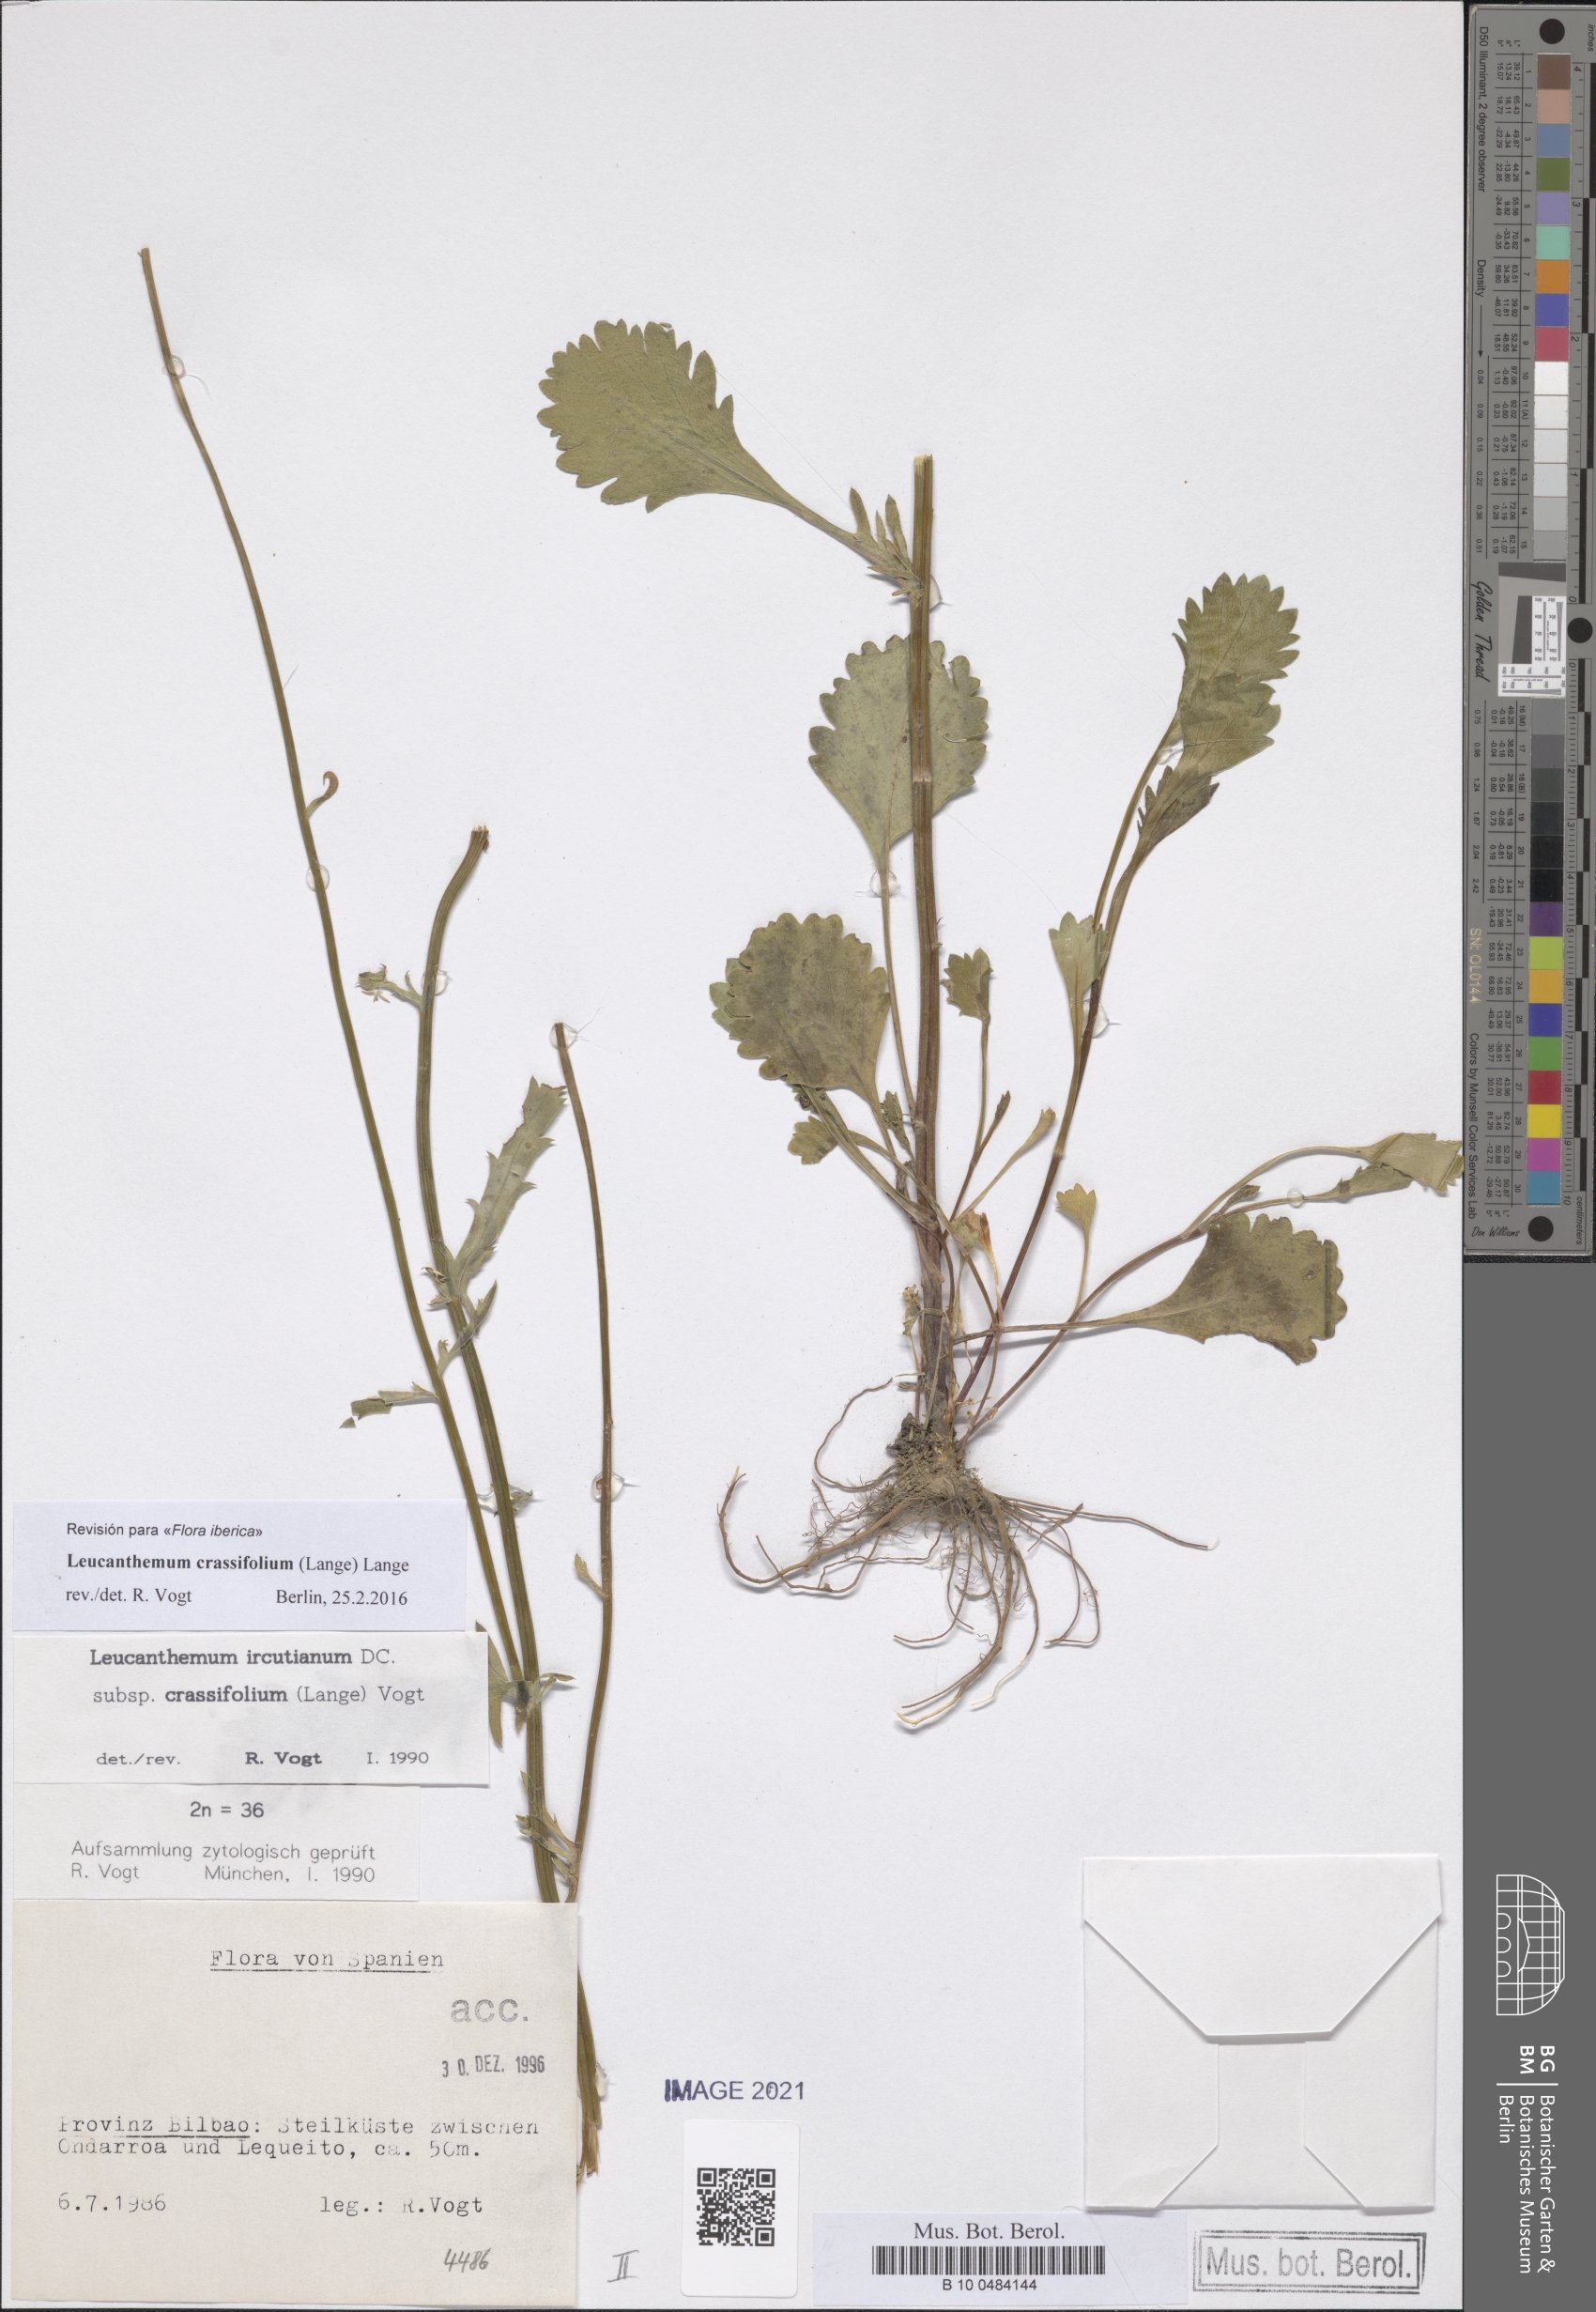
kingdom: Plantae
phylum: Tracheophyta
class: Magnoliopsida
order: Asterales
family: Asteraceae
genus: Leucanthemum
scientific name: Leucanthemum crassifolium
